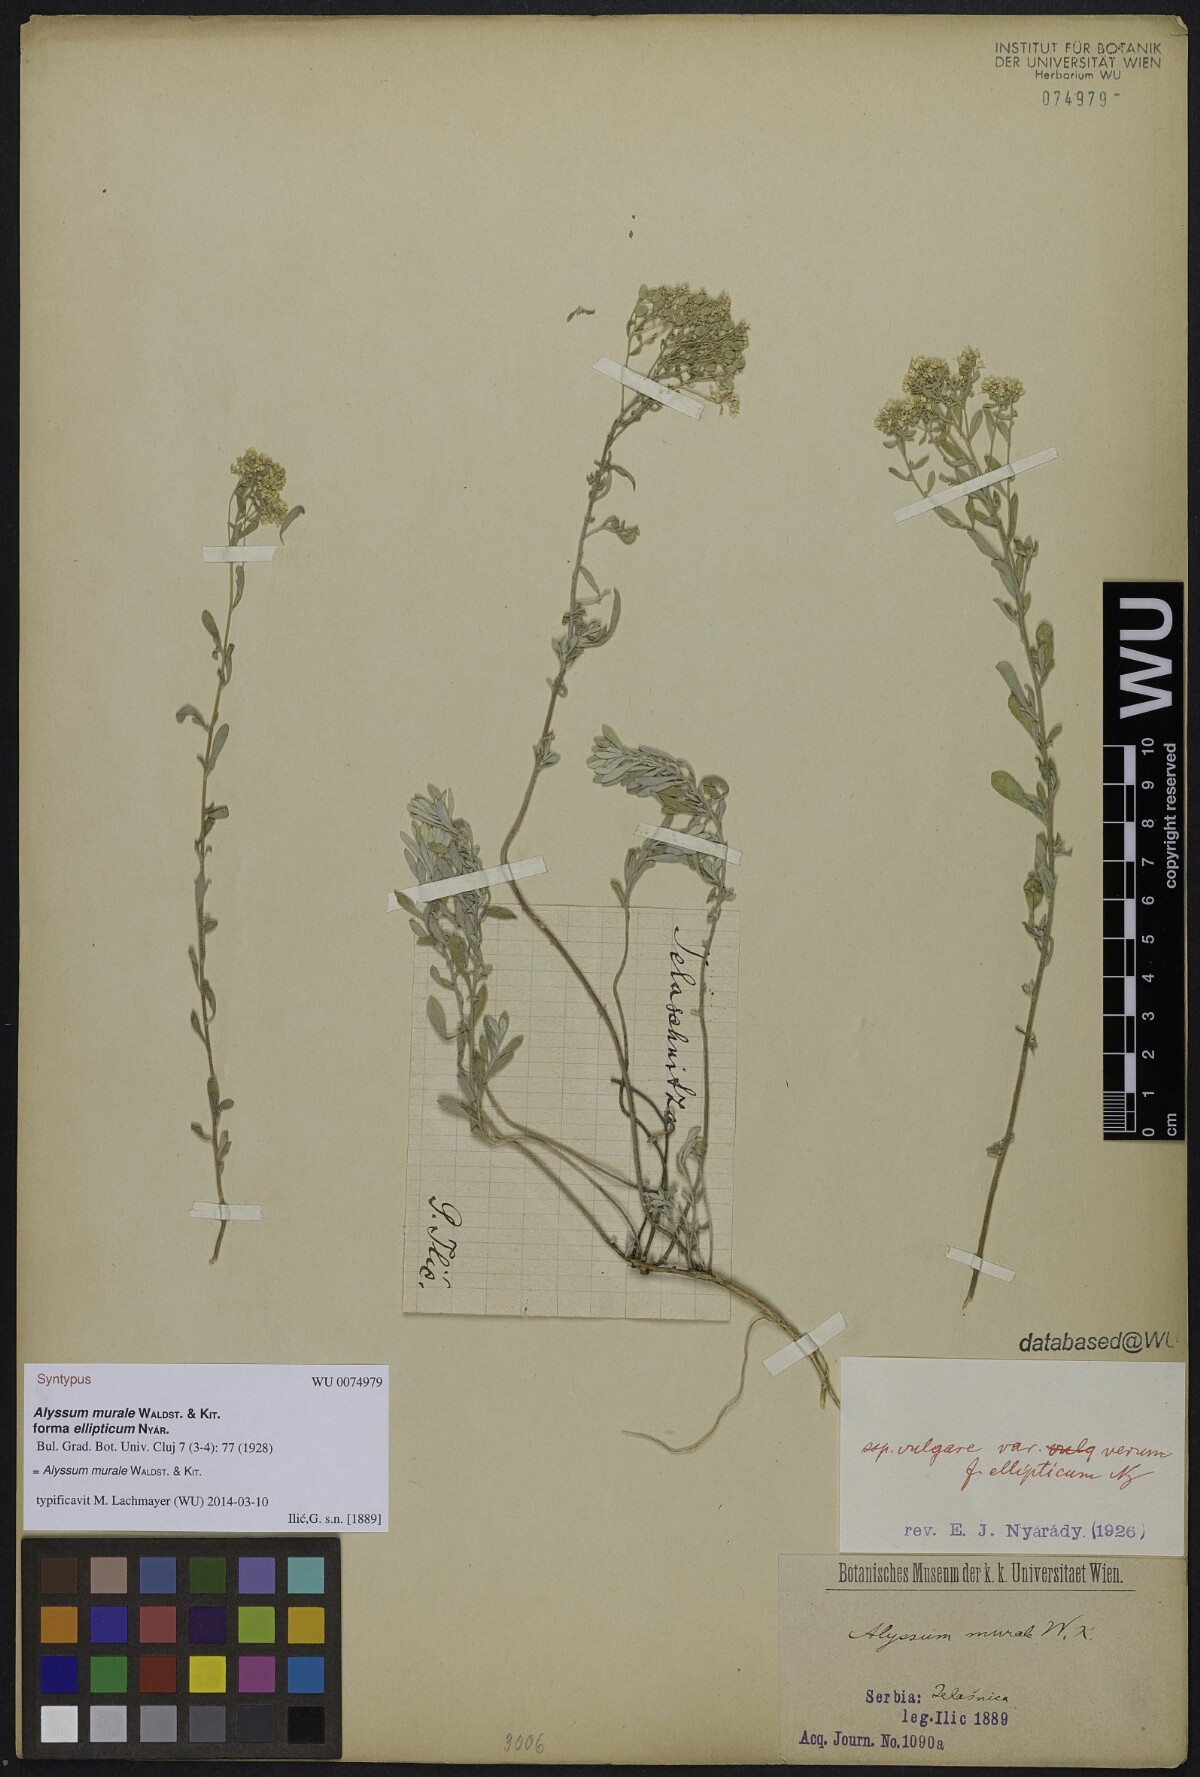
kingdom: Plantae
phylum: Tracheophyta
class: Magnoliopsida
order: Brassicales
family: Brassicaceae
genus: Odontarrhena
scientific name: Odontarrhena muralis
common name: Rock alyssum
